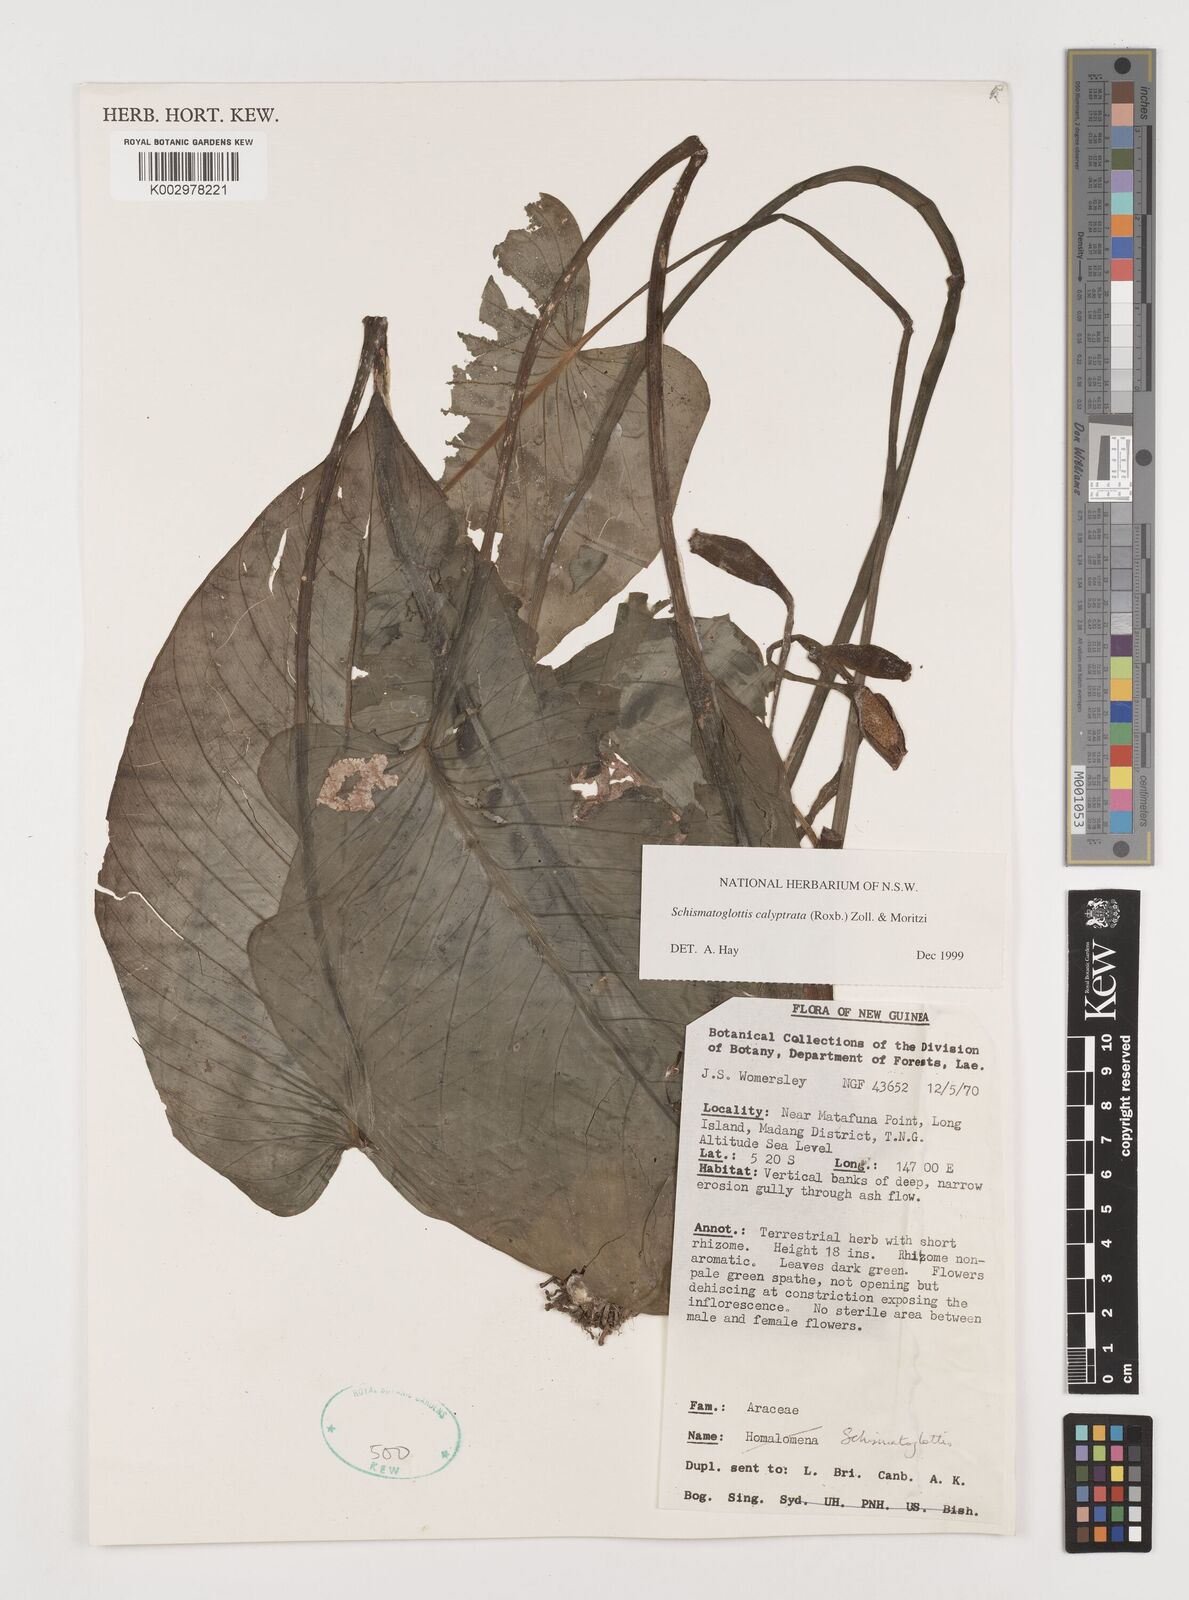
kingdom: Plantae
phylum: Tracheophyta
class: Liliopsida
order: Alismatales
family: Araceae
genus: Schismatoglottis
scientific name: Schismatoglottis calyptrata
